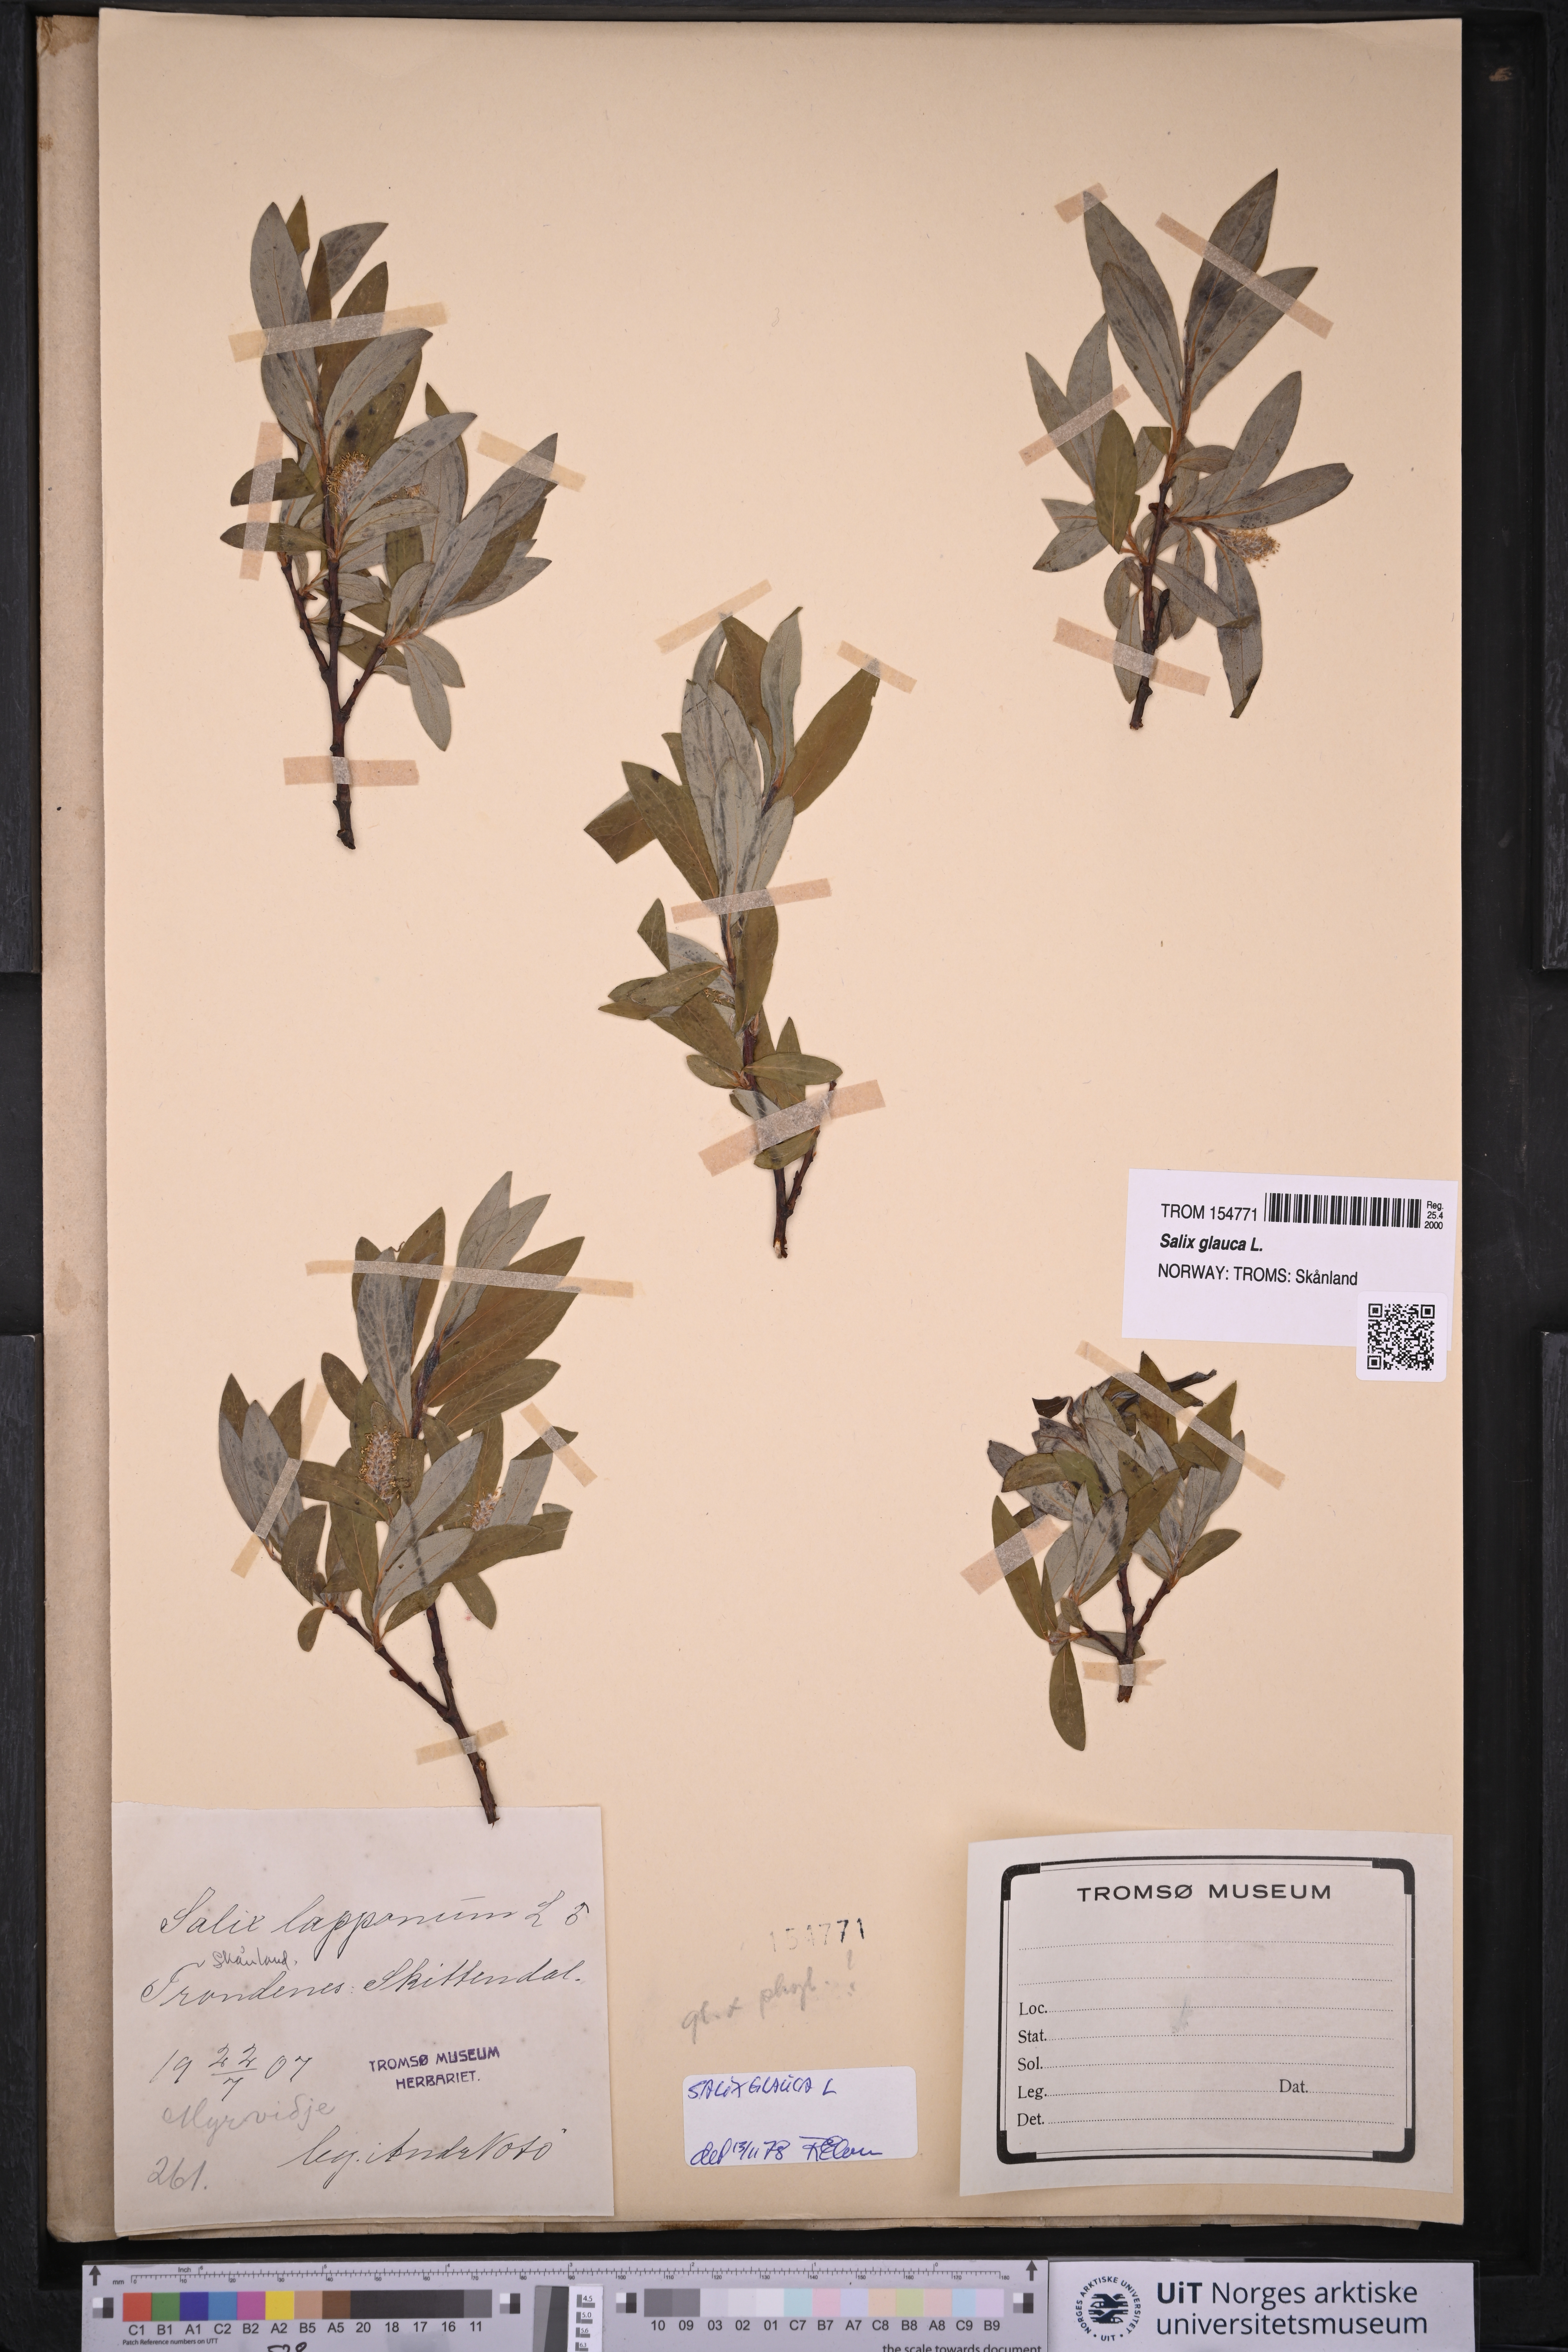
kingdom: Plantae
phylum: Tracheophyta
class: Magnoliopsida
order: Malpighiales
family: Salicaceae
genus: Salix
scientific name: Salix glauca
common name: Glaucous willow
